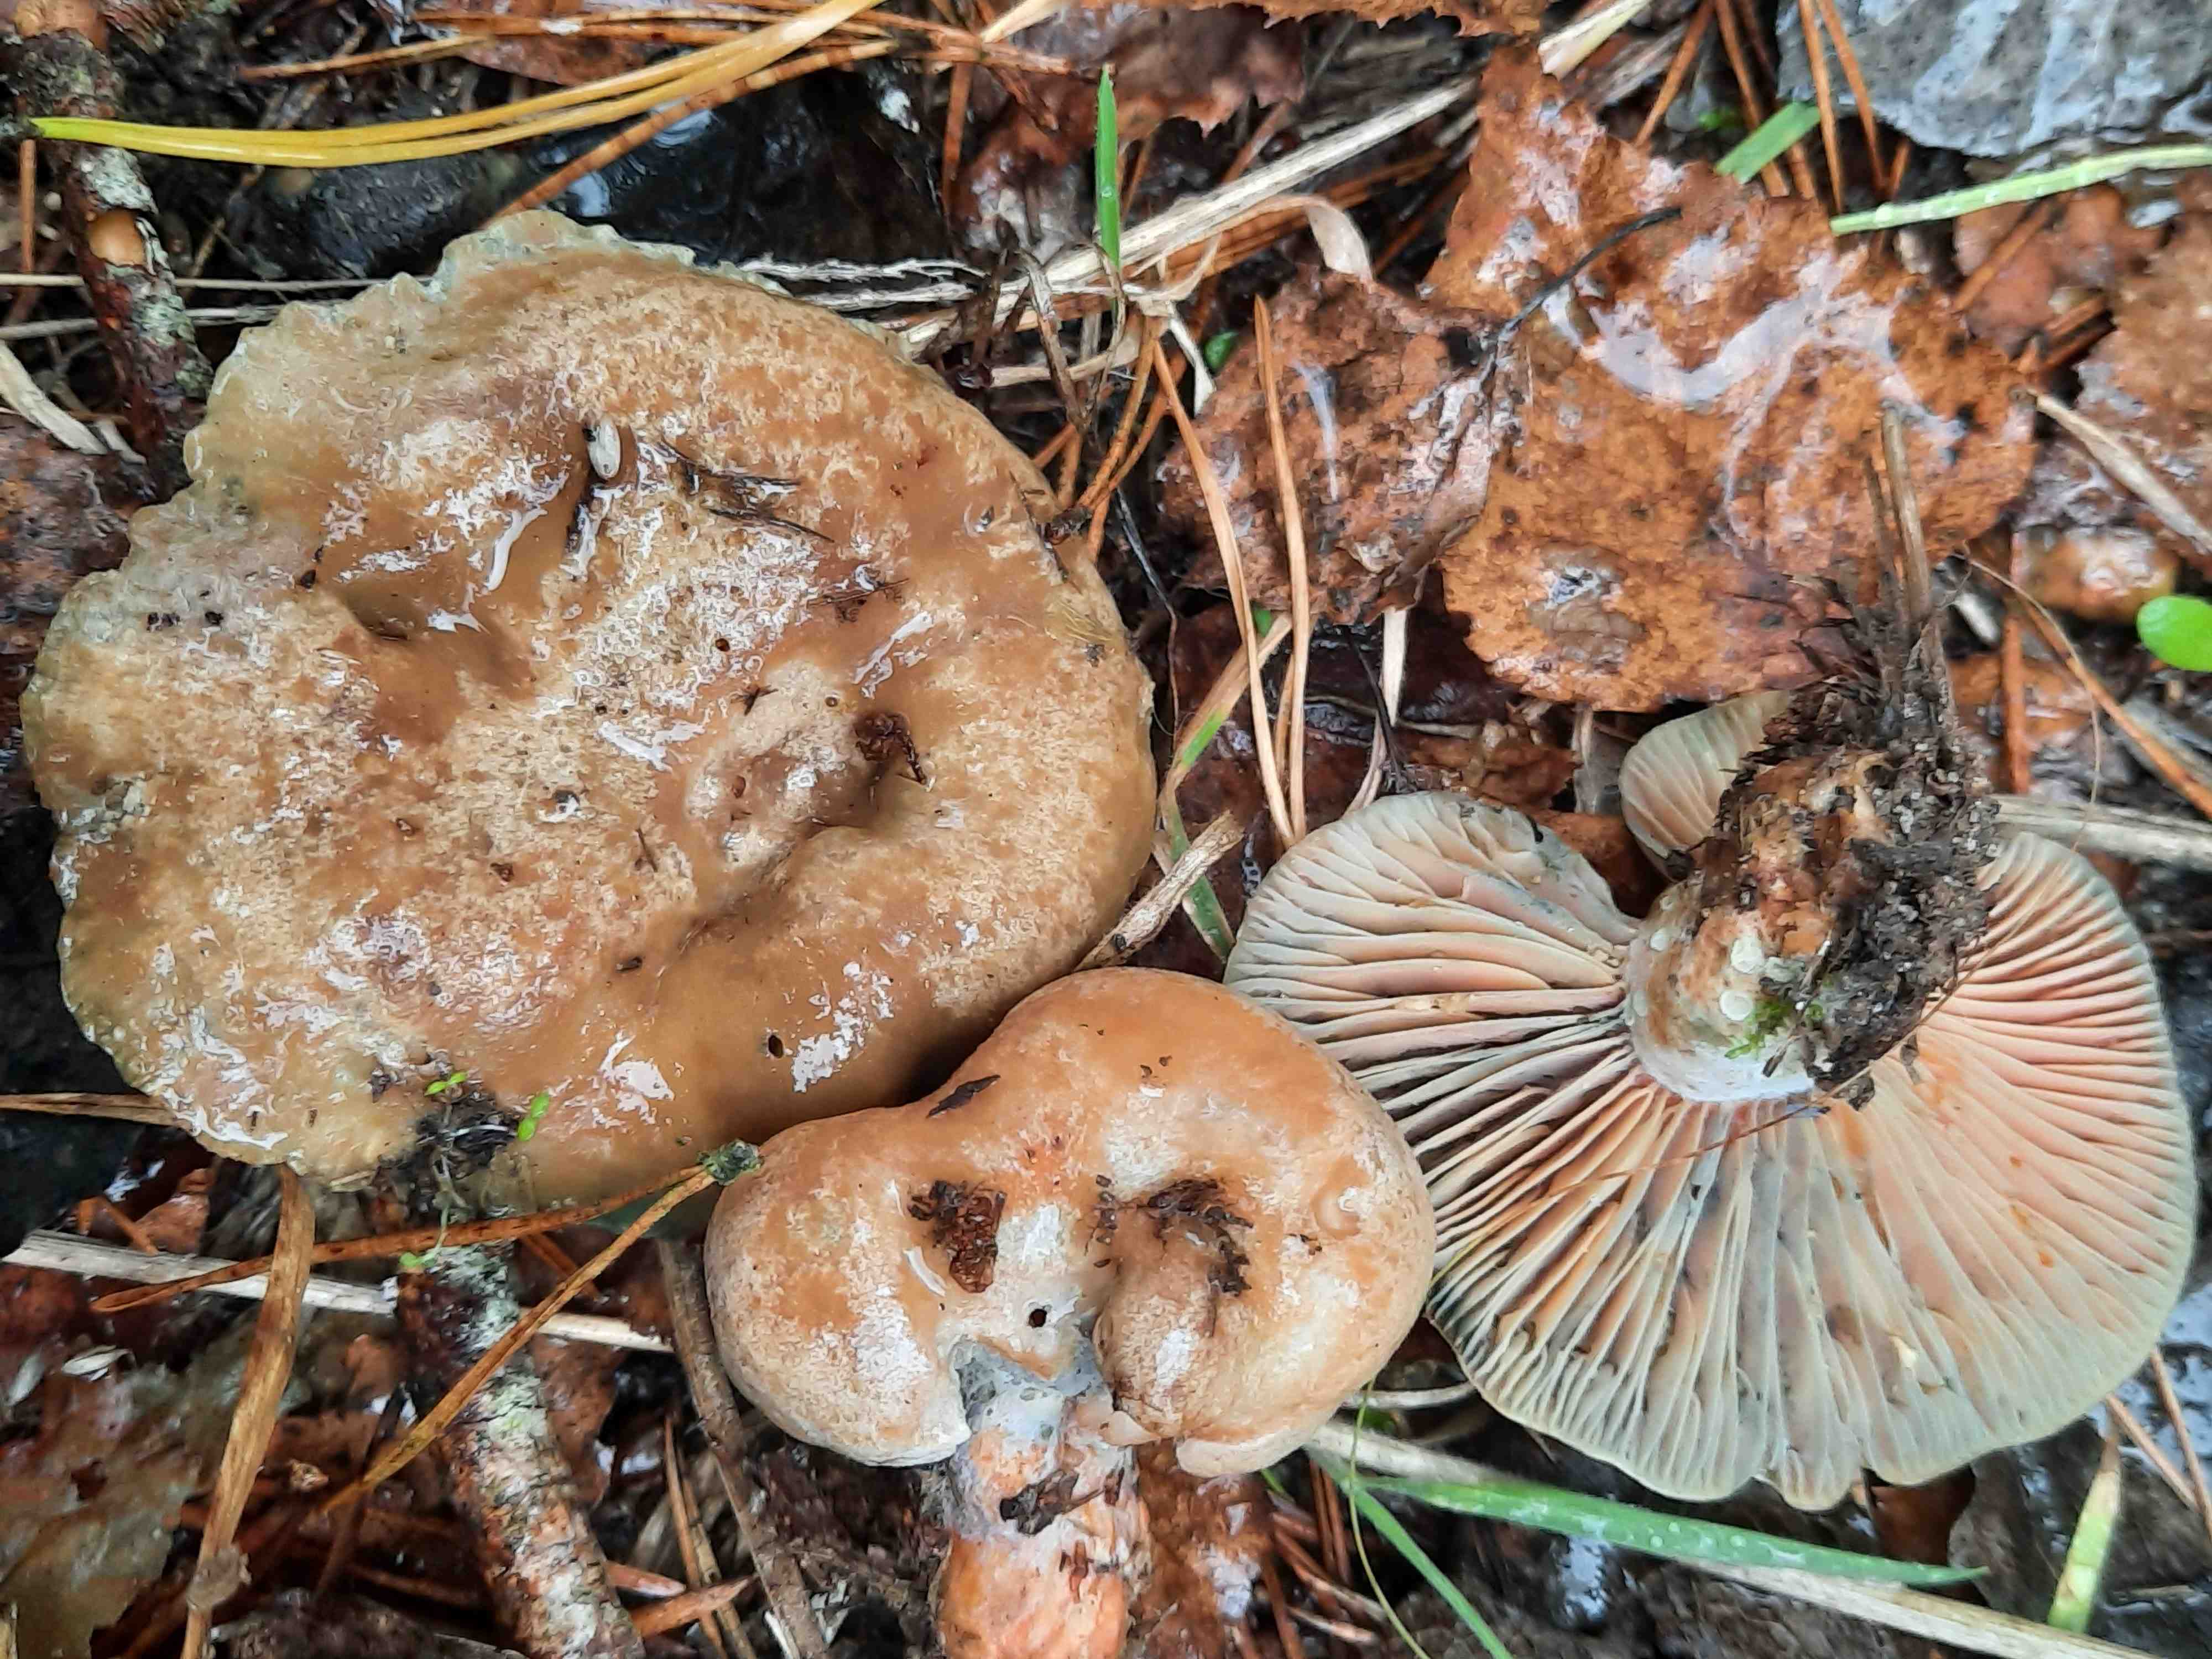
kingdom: Fungi
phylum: Basidiomycota
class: Agaricomycetes
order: Russulales
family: Russulaceae
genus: Lactarius
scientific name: Lactarius deliciosus
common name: velsmagende mælkehat
